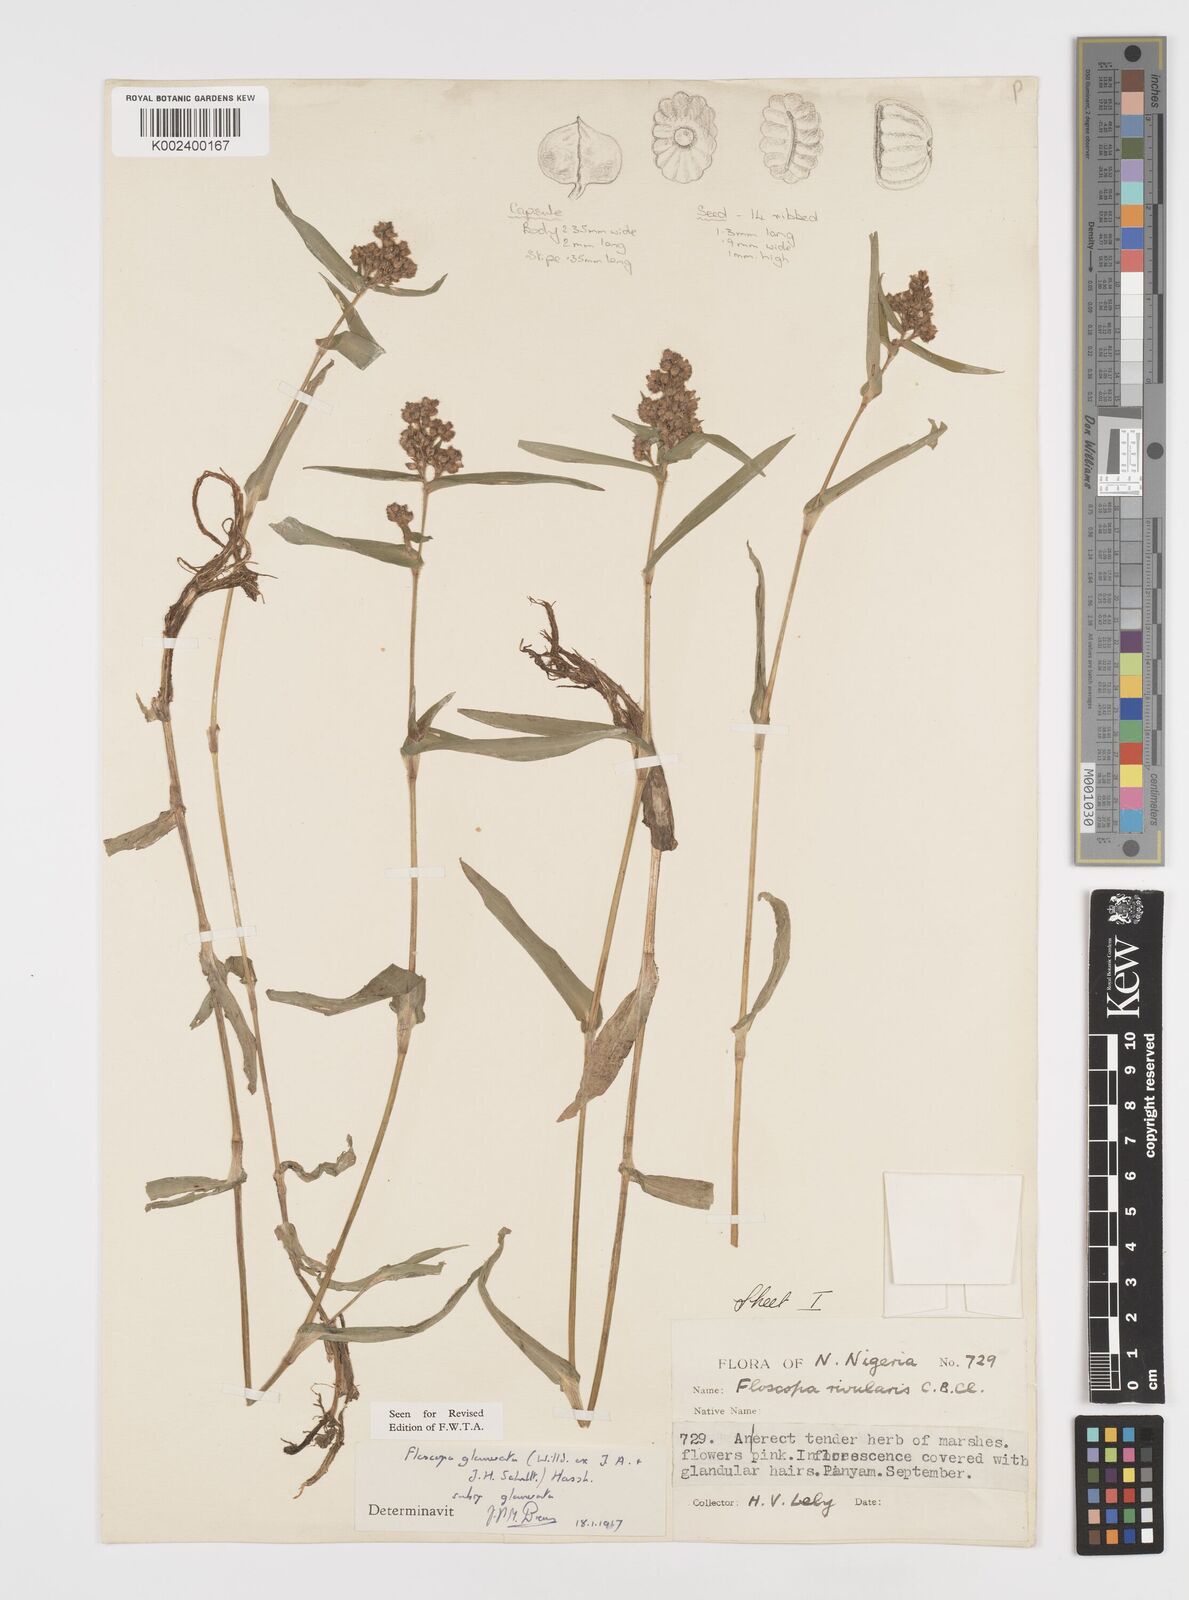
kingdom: Plantae
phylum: Tracheophyta
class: Liliopsida
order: Commelinales
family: Commelinaceae
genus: Floscopa
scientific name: Floscopa glomerata
